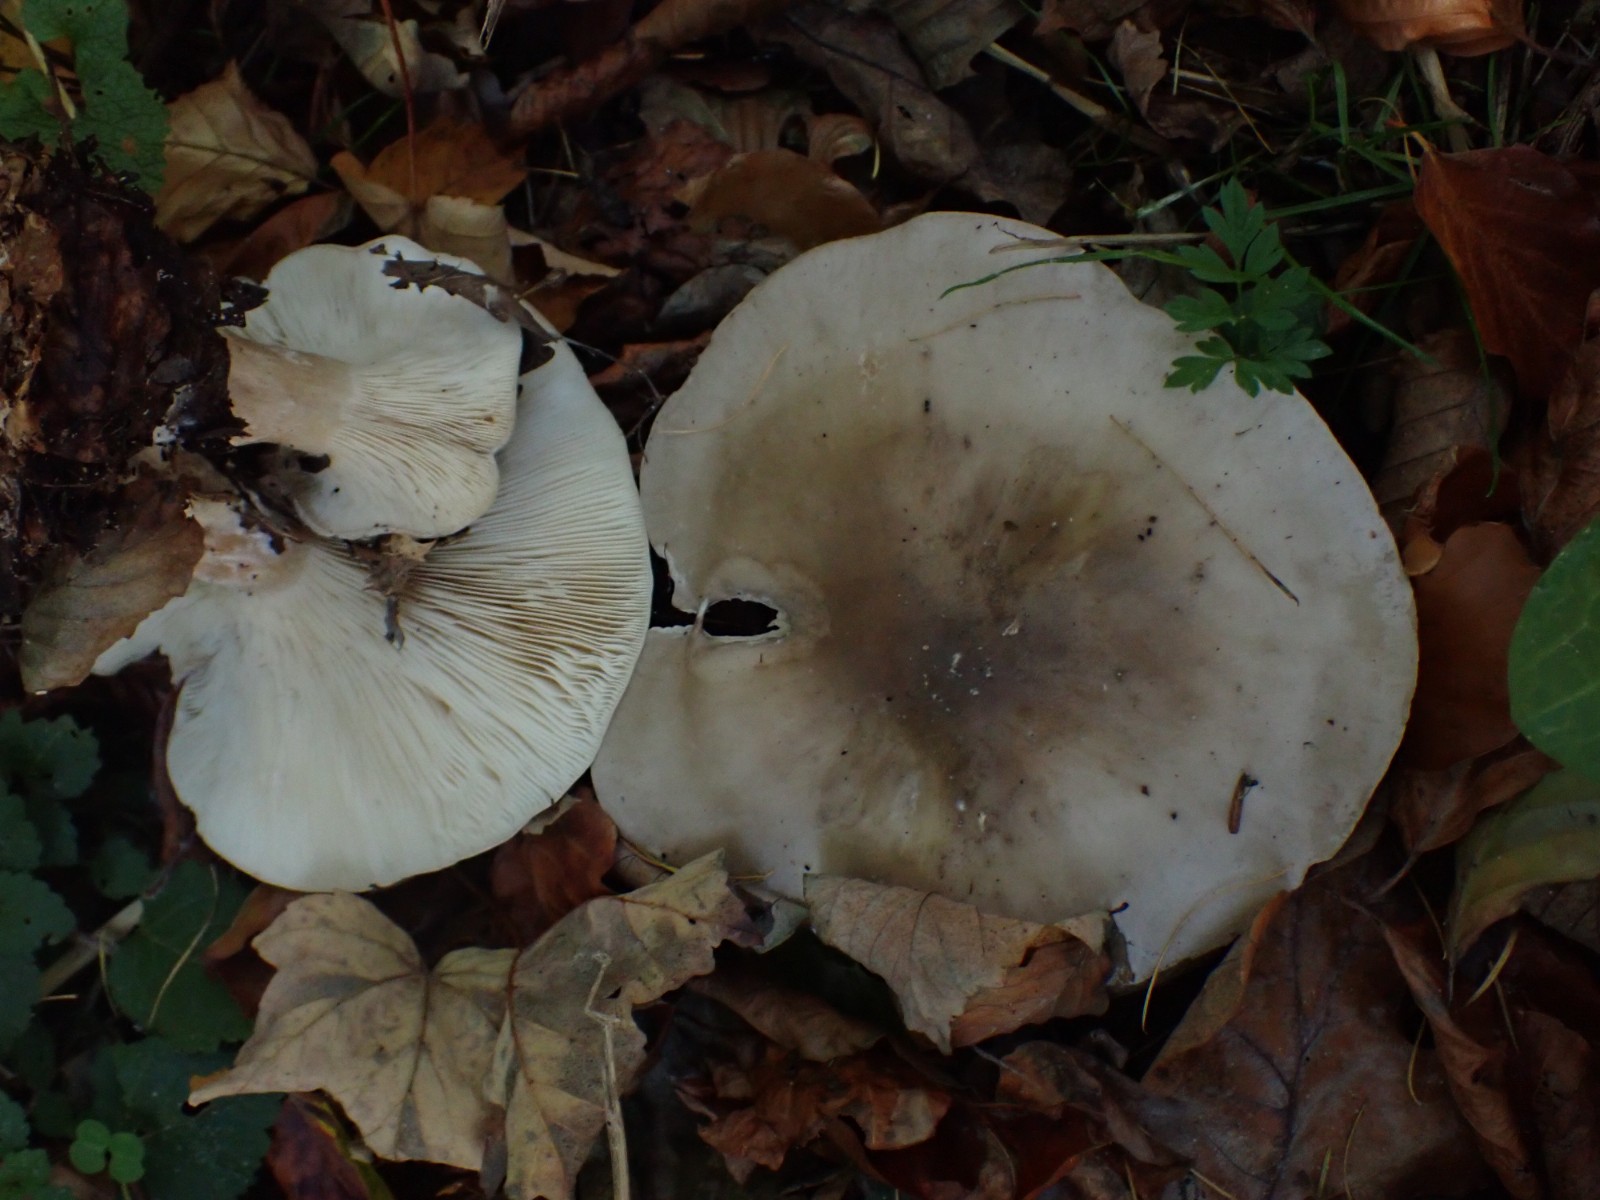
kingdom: Fungi
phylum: Basidiomycota
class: Agaricomycetes
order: Agaricales
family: Tricholomataceae
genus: Clitocybe
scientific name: Clitocybe nebularis
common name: tåge-tragthat
